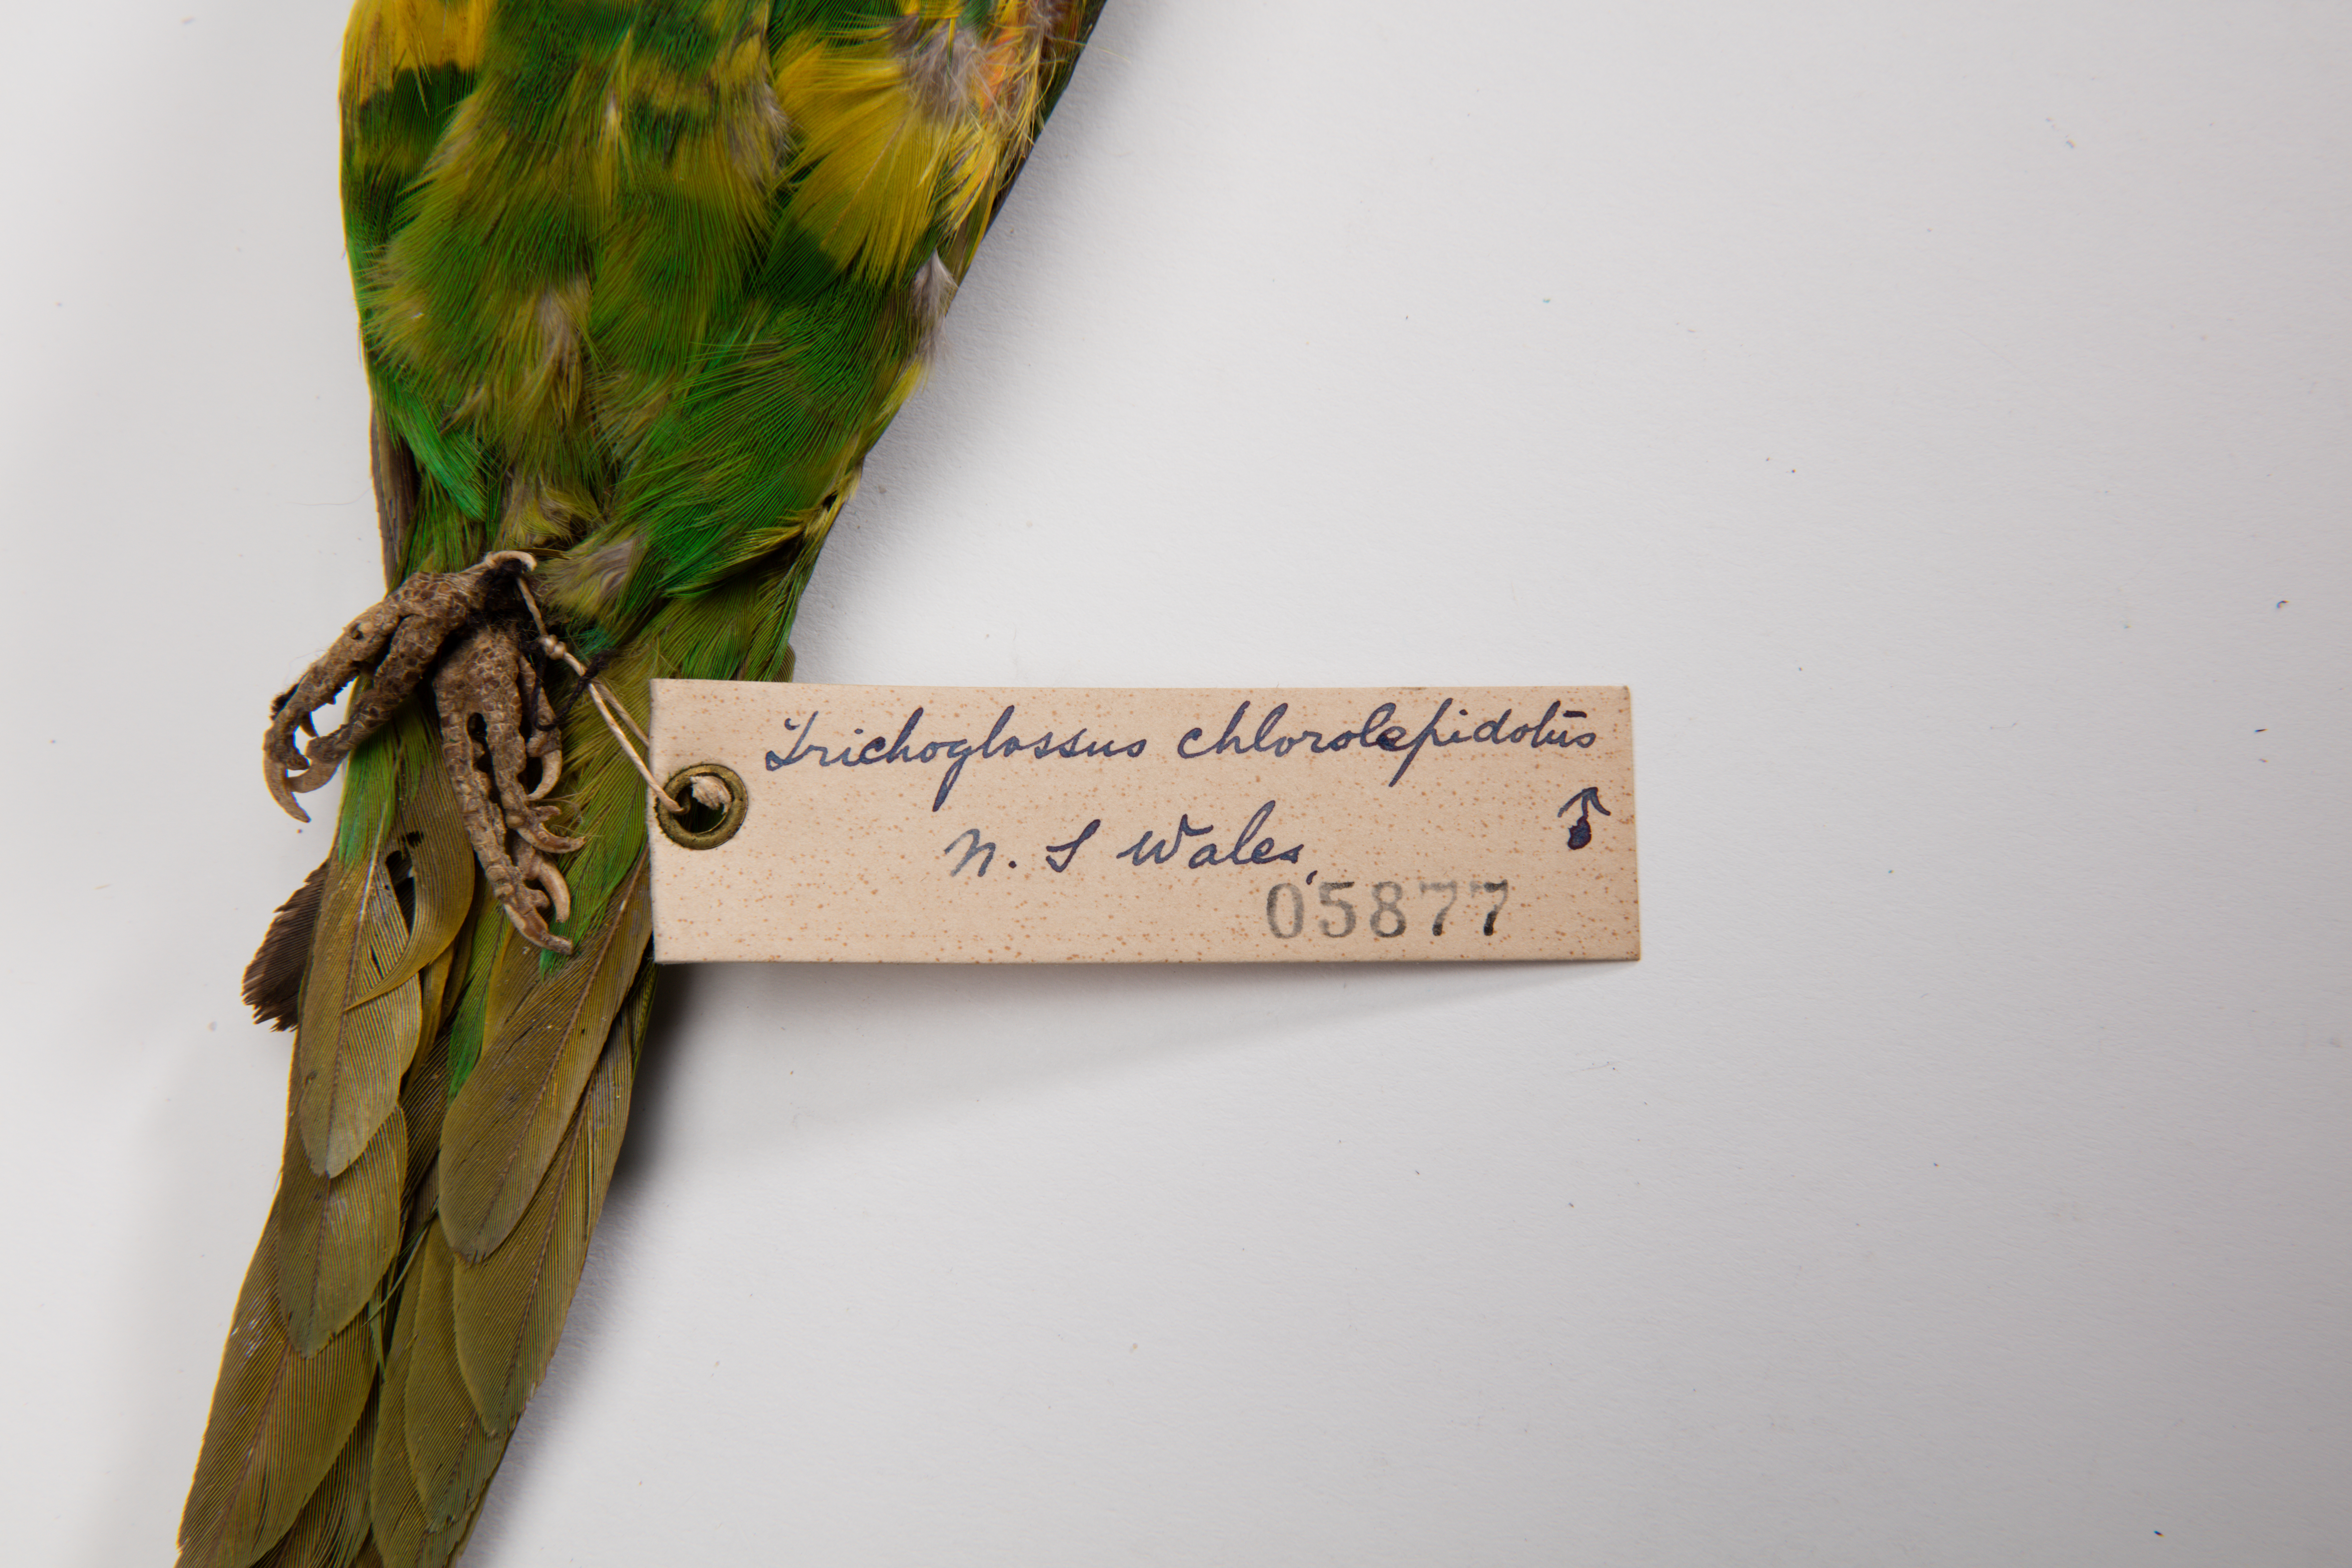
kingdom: Animalia
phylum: Chordata
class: Aves
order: Psittaciformes
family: Psittacidae
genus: Trichoglossus
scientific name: Trichoglossus chlorolepidotus
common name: Scaly-breasted lorikeet
